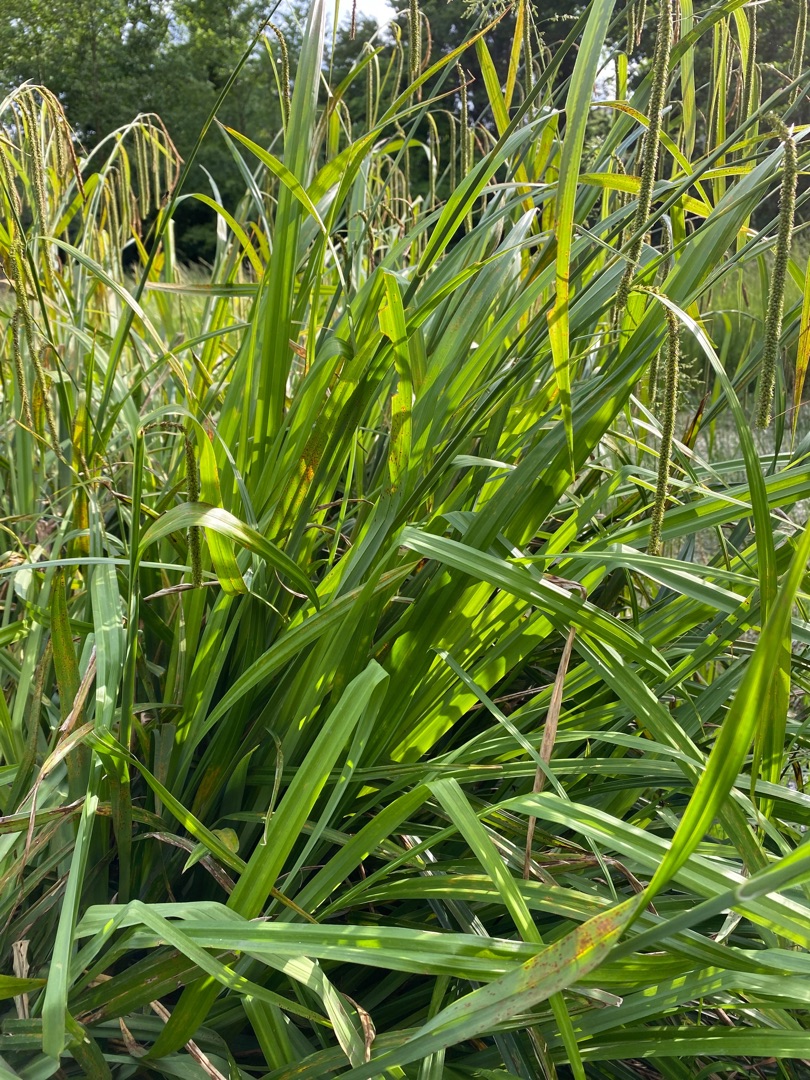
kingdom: Plantae
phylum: Tracheophyta
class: Liliopsida
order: Poales
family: Cyperaceae
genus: Carex
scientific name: Carex pendula
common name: Kæmpe-star
